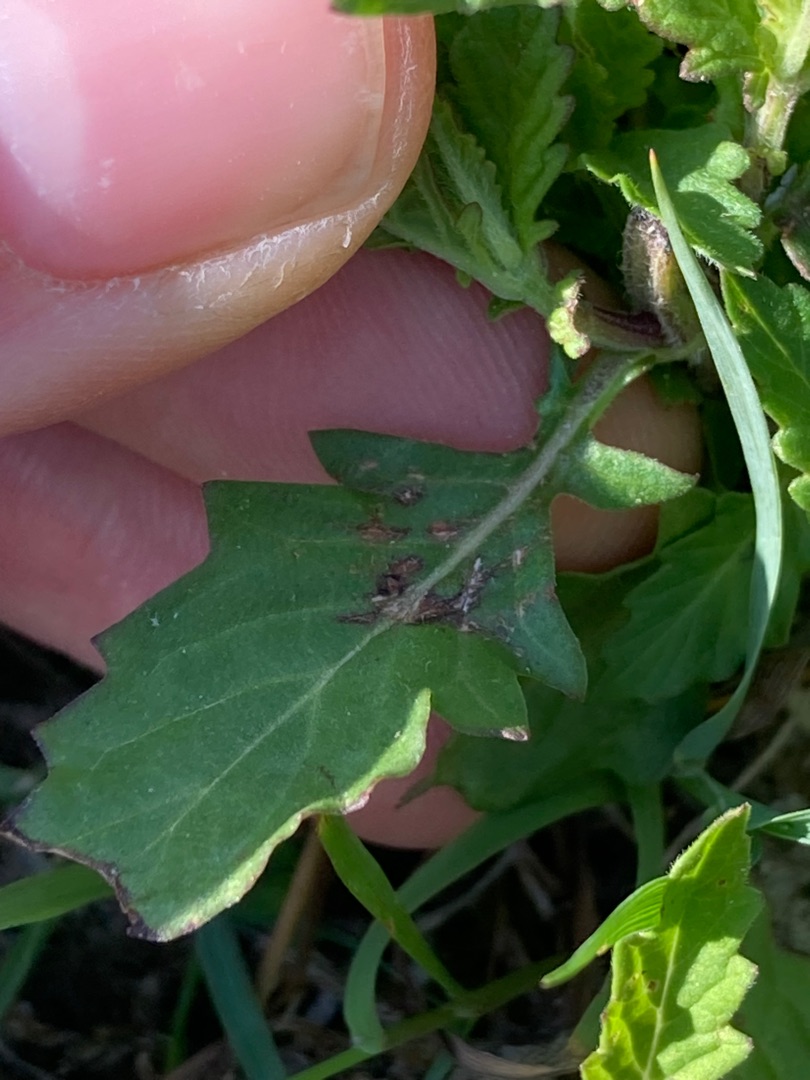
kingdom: Plantae
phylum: Tracheophyta
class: Magnoliopsida
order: Lamiales
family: Lamiaceae
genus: Lycopus
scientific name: Lycopus europaeus
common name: Sværtevæld
